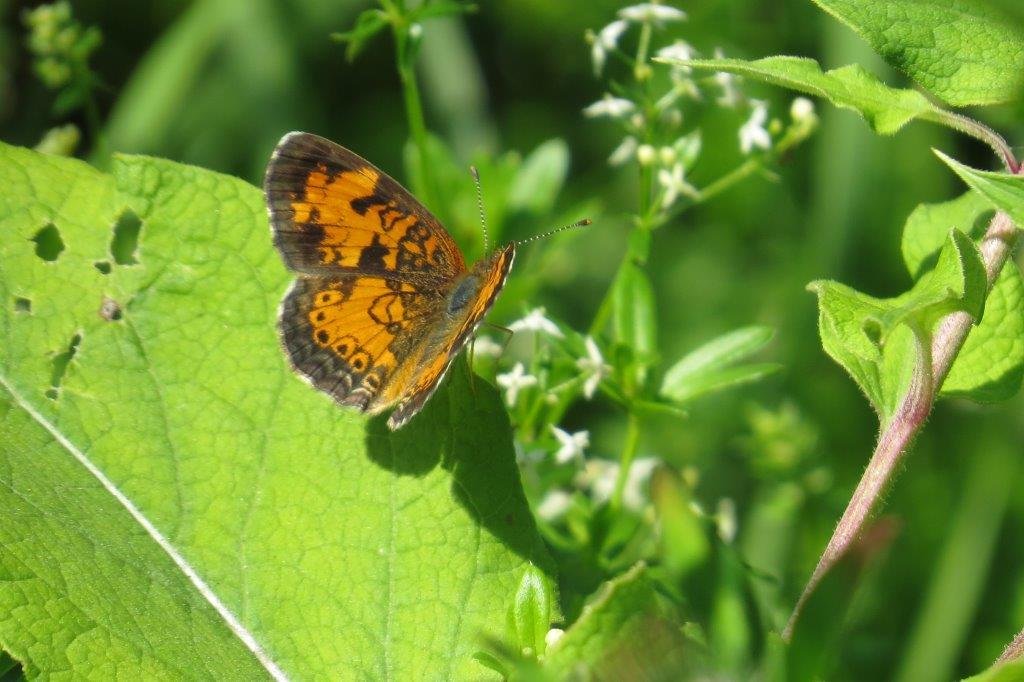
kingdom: Animalia
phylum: Arthropoda
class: Insecta
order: Lepidoptera
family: Nymphalidae
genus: Phyciodes
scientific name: Phyciodes tharos
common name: Northern Crescent
